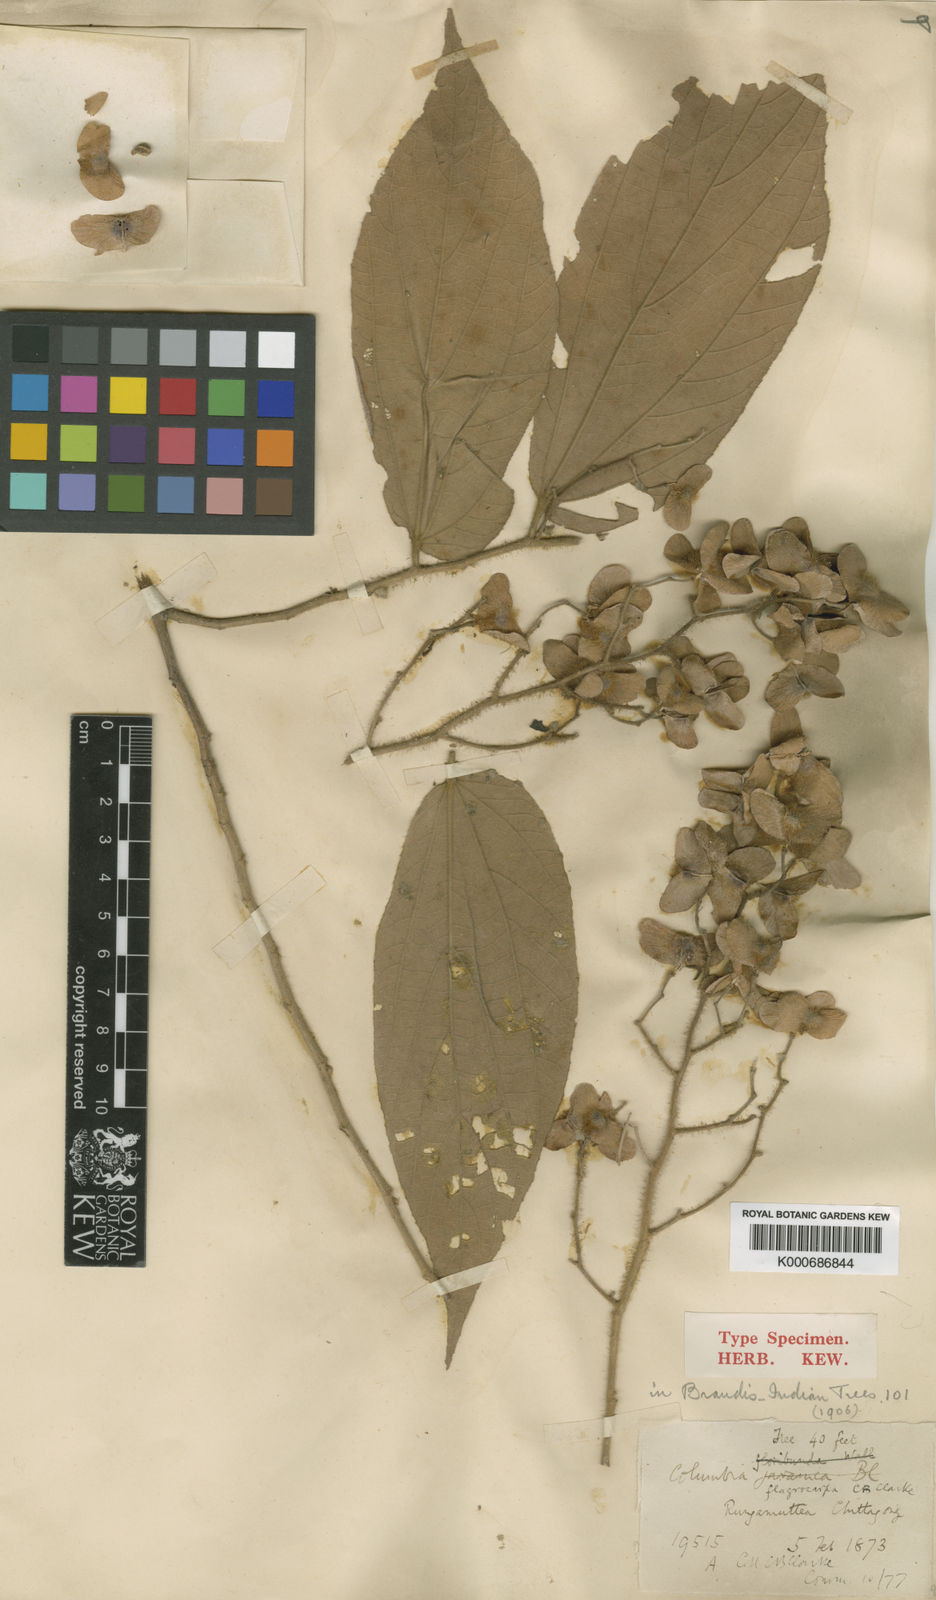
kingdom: Plantae
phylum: Tracheophyta
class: Magnoliopsida
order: Malvales
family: Malvaceae
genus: Colona
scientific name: Colona flagrocarpa
